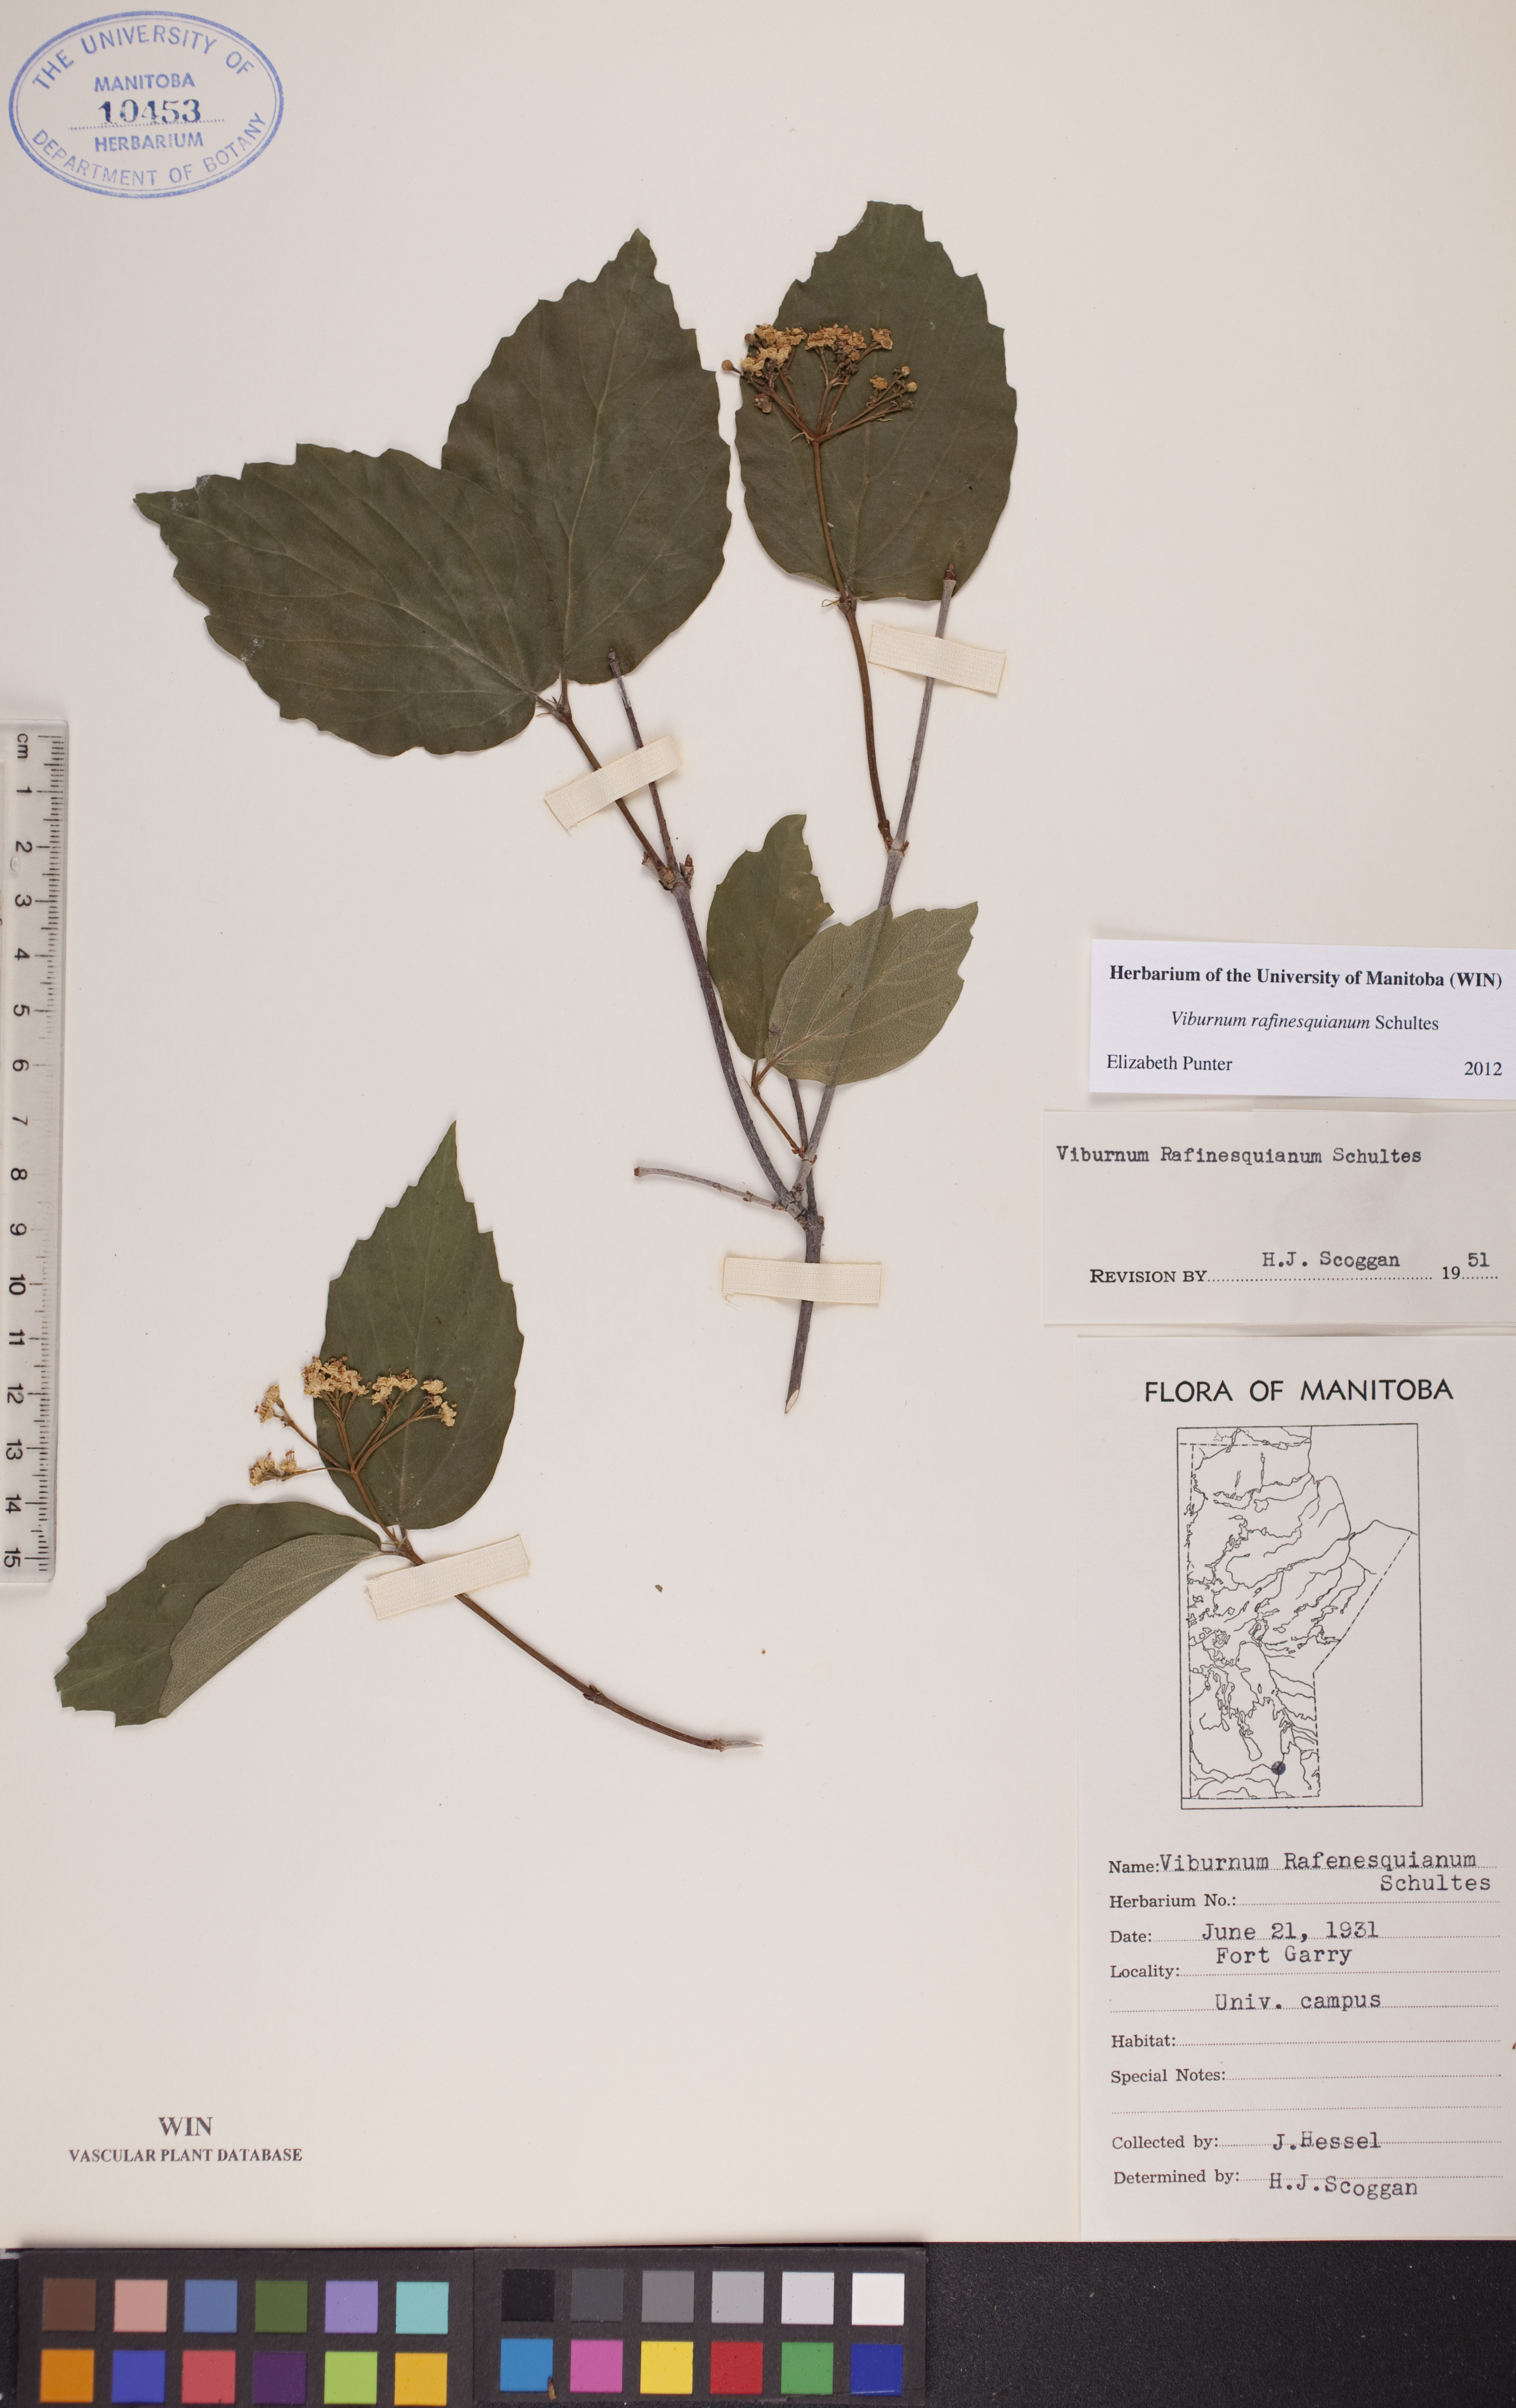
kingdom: Plantae
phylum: Tracheophyta
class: Magnoliopsida
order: Dipsacales
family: Viburnaceae
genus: Viburnum
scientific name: Viburnum rafinesquianum
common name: Downy arrow-wood
